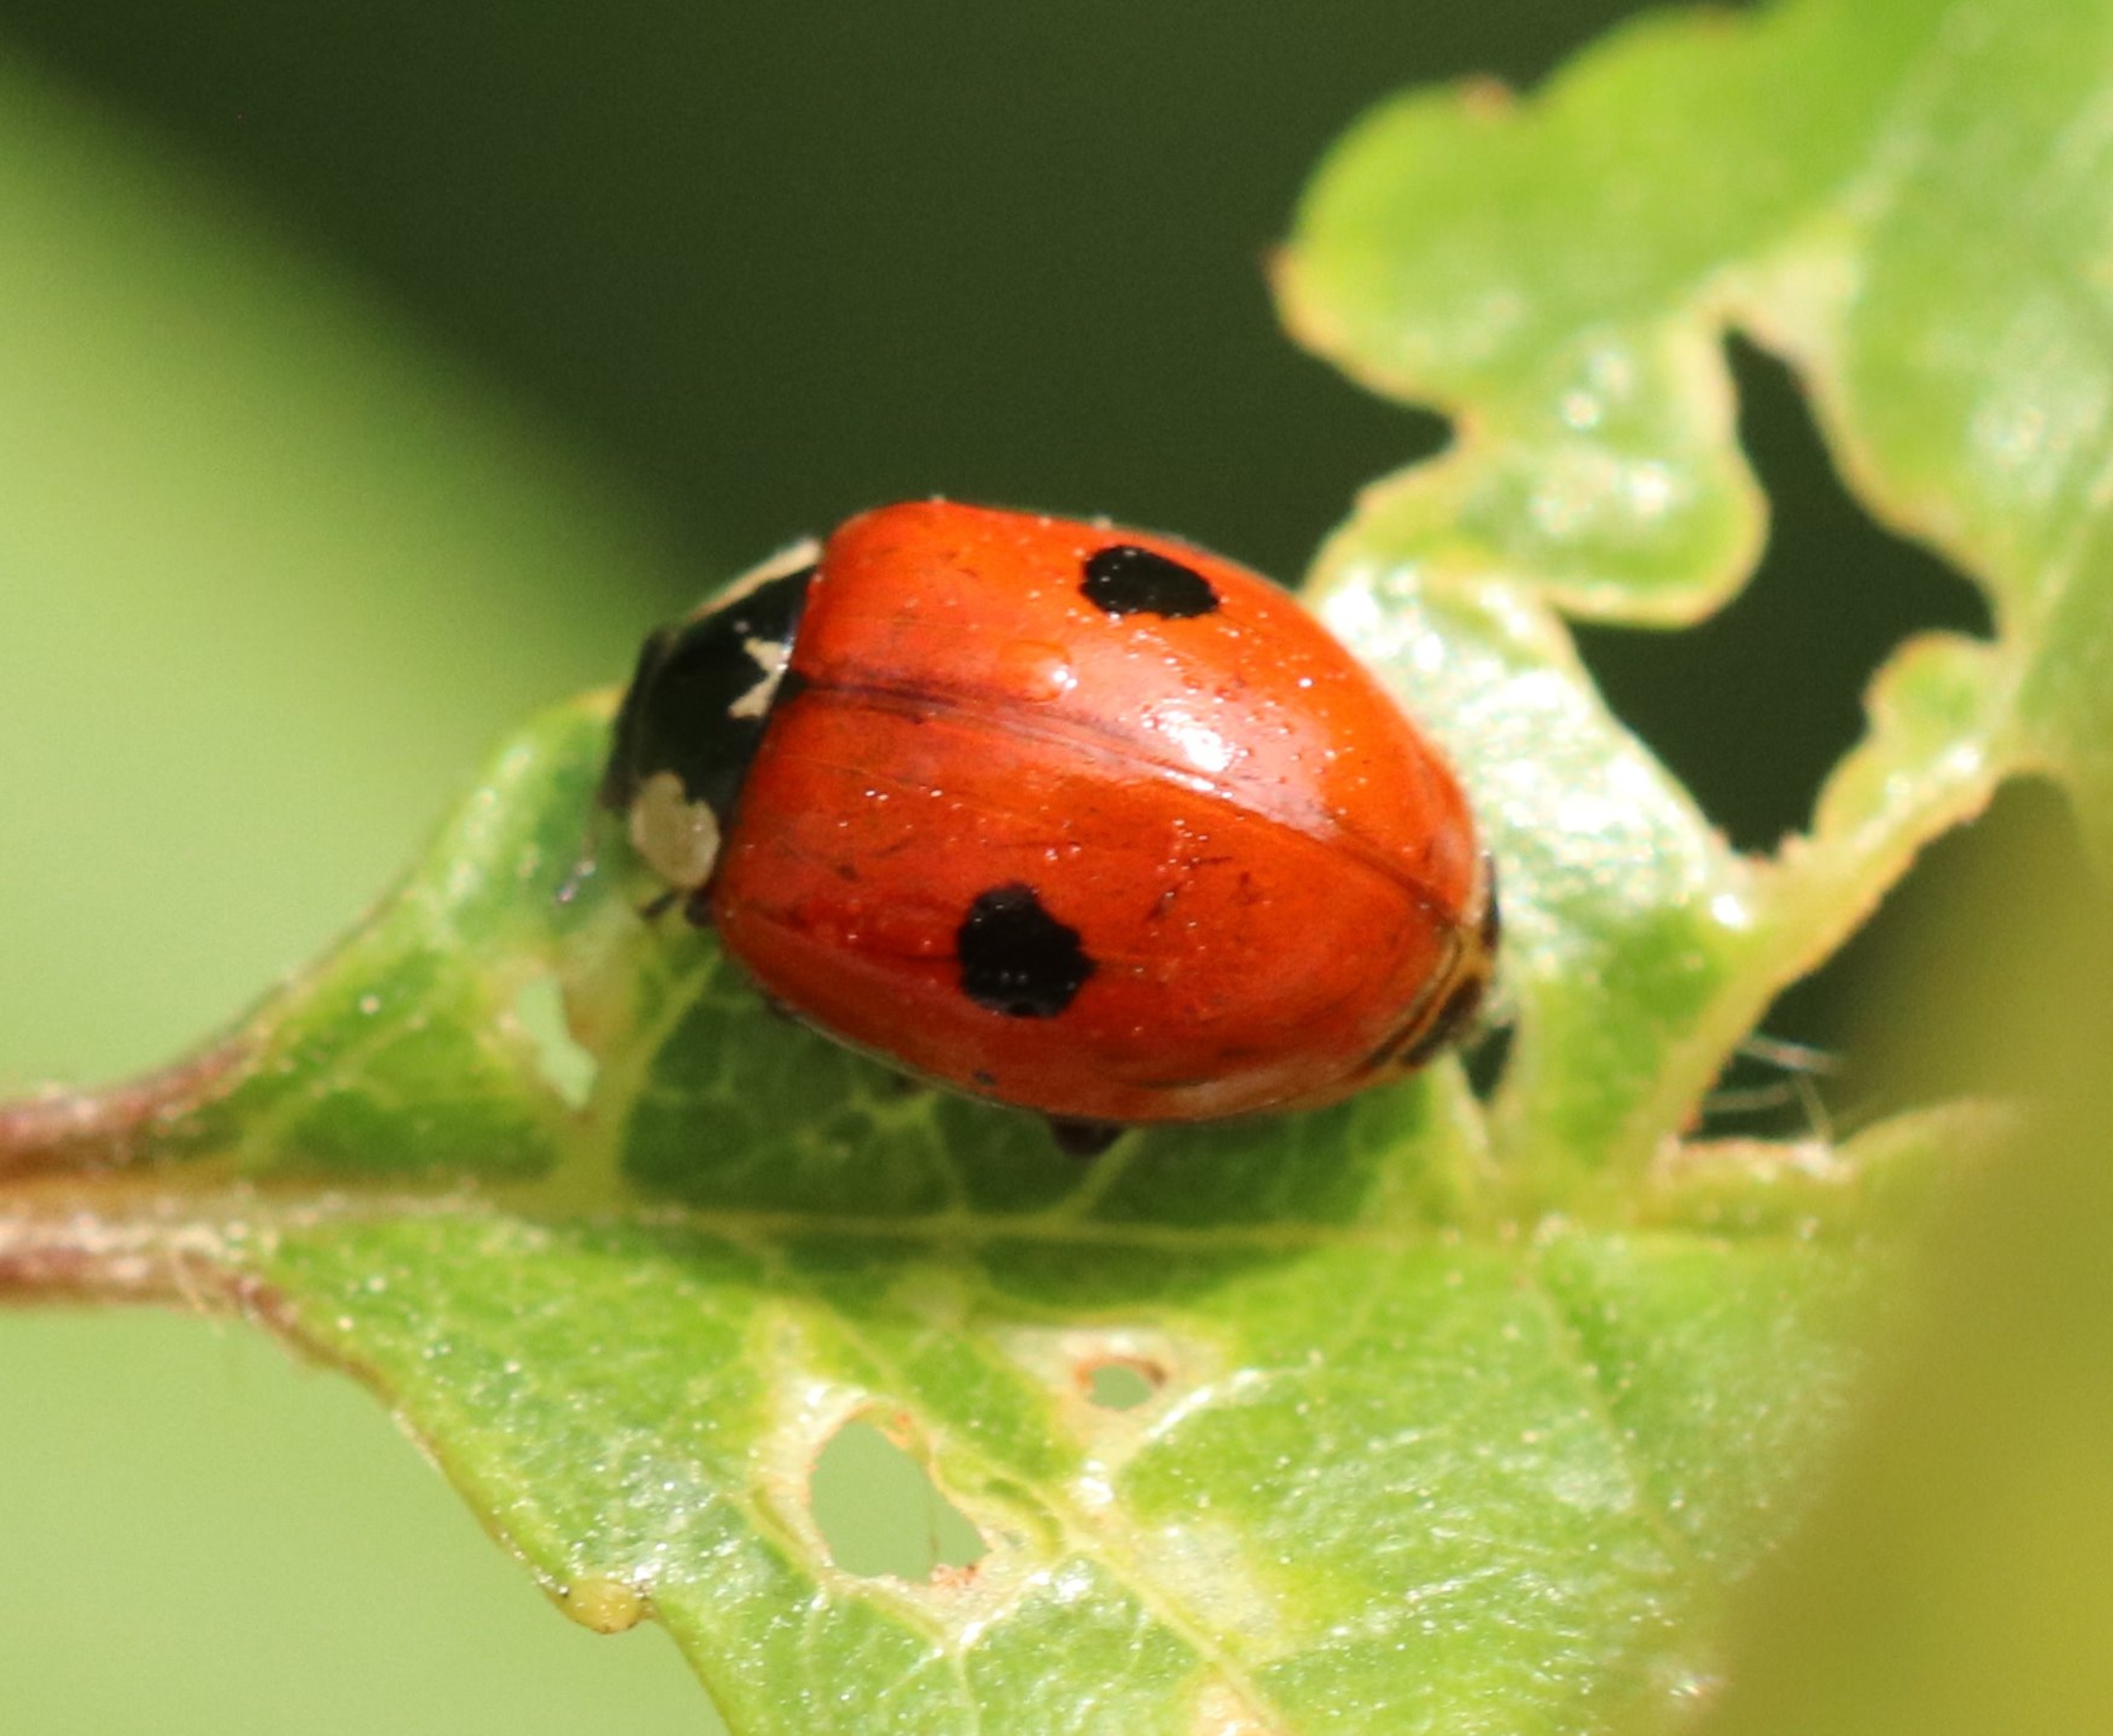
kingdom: Animalia
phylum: Arthropoda
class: Insecta
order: Coleoptera
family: Coccinellidae
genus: Adalia
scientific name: Adalia bipunctata
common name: Toplettet mariehøne
